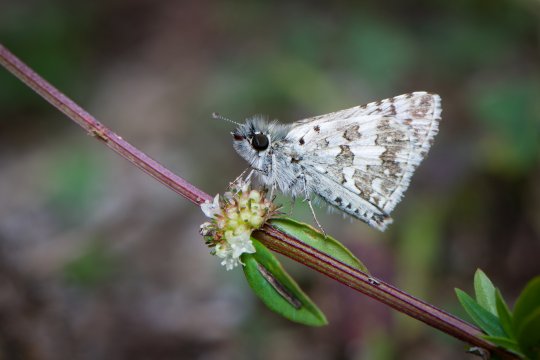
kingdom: Animalia
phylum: Arthropoda
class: Insecta
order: Lepidoptera
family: Hesperiidae
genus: Pyrgus
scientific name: Pyrgus
